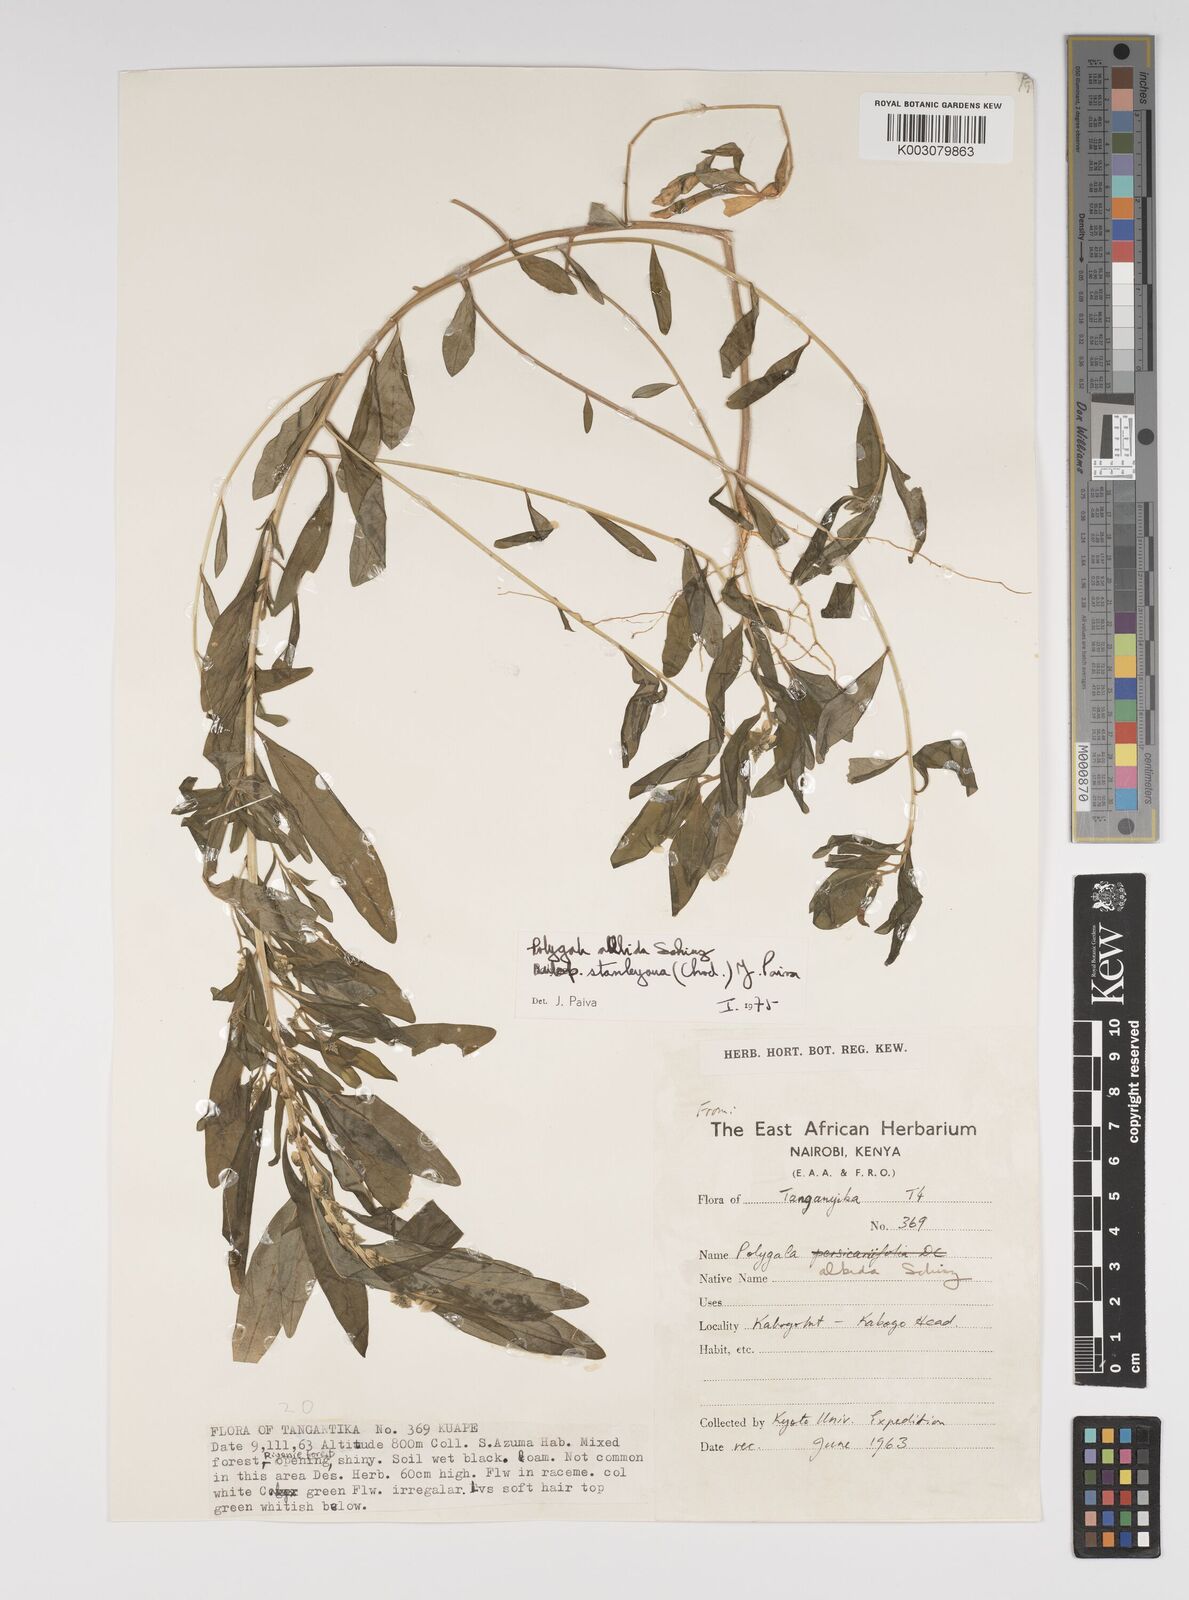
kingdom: Plantae
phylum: Tracheophyta
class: Magnoliopsida
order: Fabales
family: Polygalaceae
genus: Polygala
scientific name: Polygala albida
